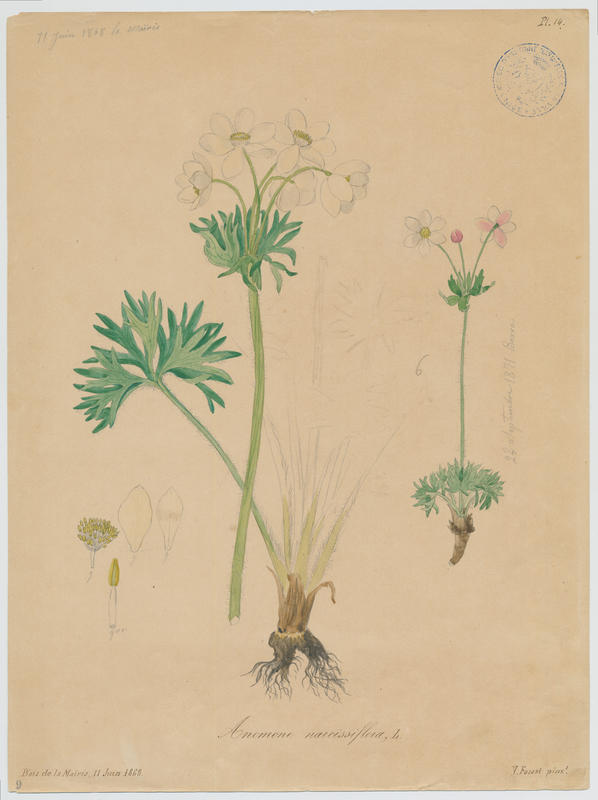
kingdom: Plantae
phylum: Tracheophyta
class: Magnoliopsida
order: Ranunculales
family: Ranunculaceae
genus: Anemonastrum
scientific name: Anemonastrum narcissiflorum
